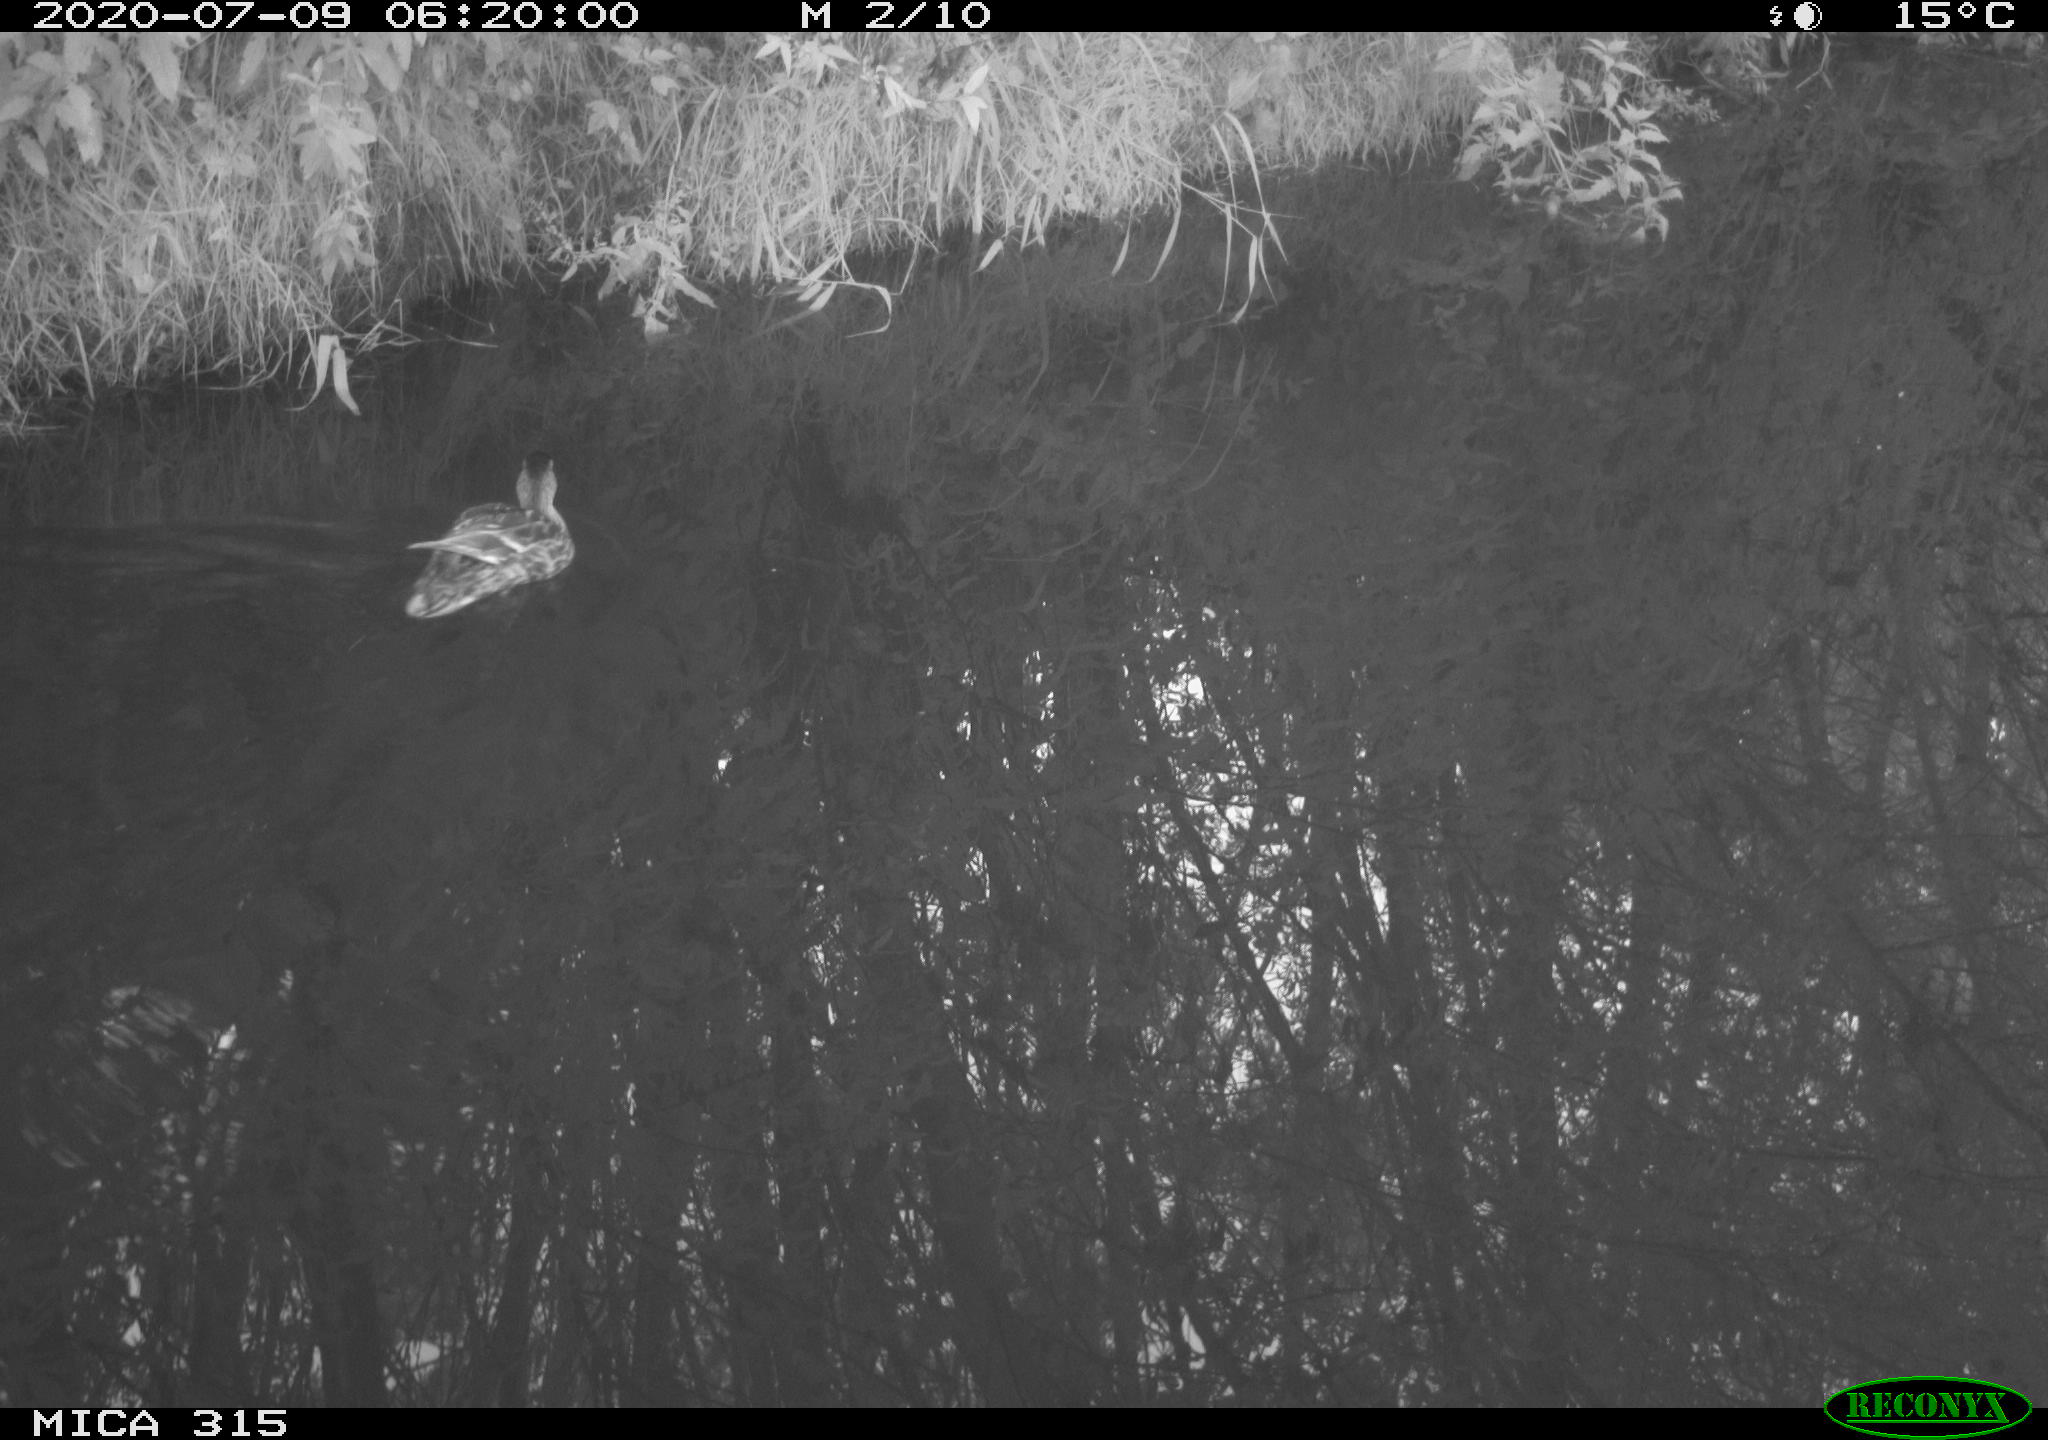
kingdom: Animalia
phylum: Chordata
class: Aves
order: Anseriformes
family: Anatidae
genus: Anas
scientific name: Anas platyrhynchos
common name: Mallard
